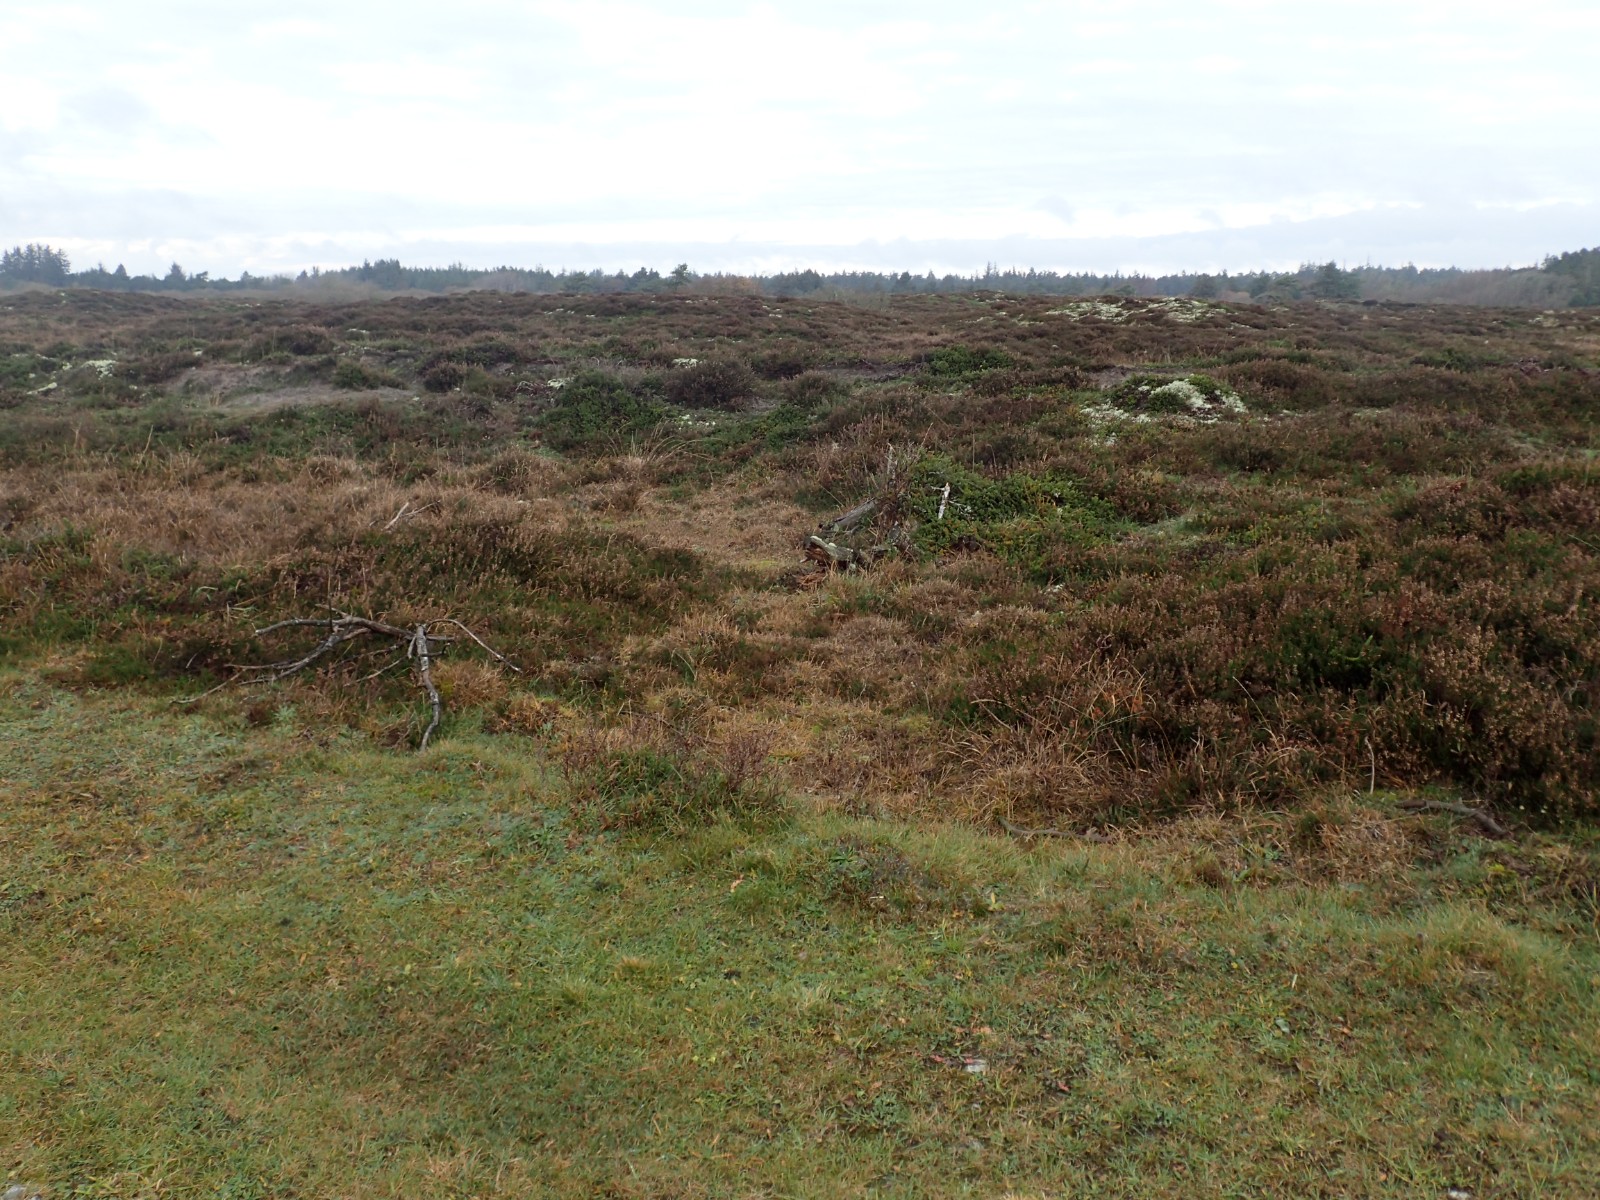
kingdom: Fungi
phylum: Basidiomycota
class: Agaricomycetes
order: Agaricales
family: Hygrophoraceae
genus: Cuphophyllus
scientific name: Cuphophyllus russocoriaceus
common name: ruslæder-vokshat
